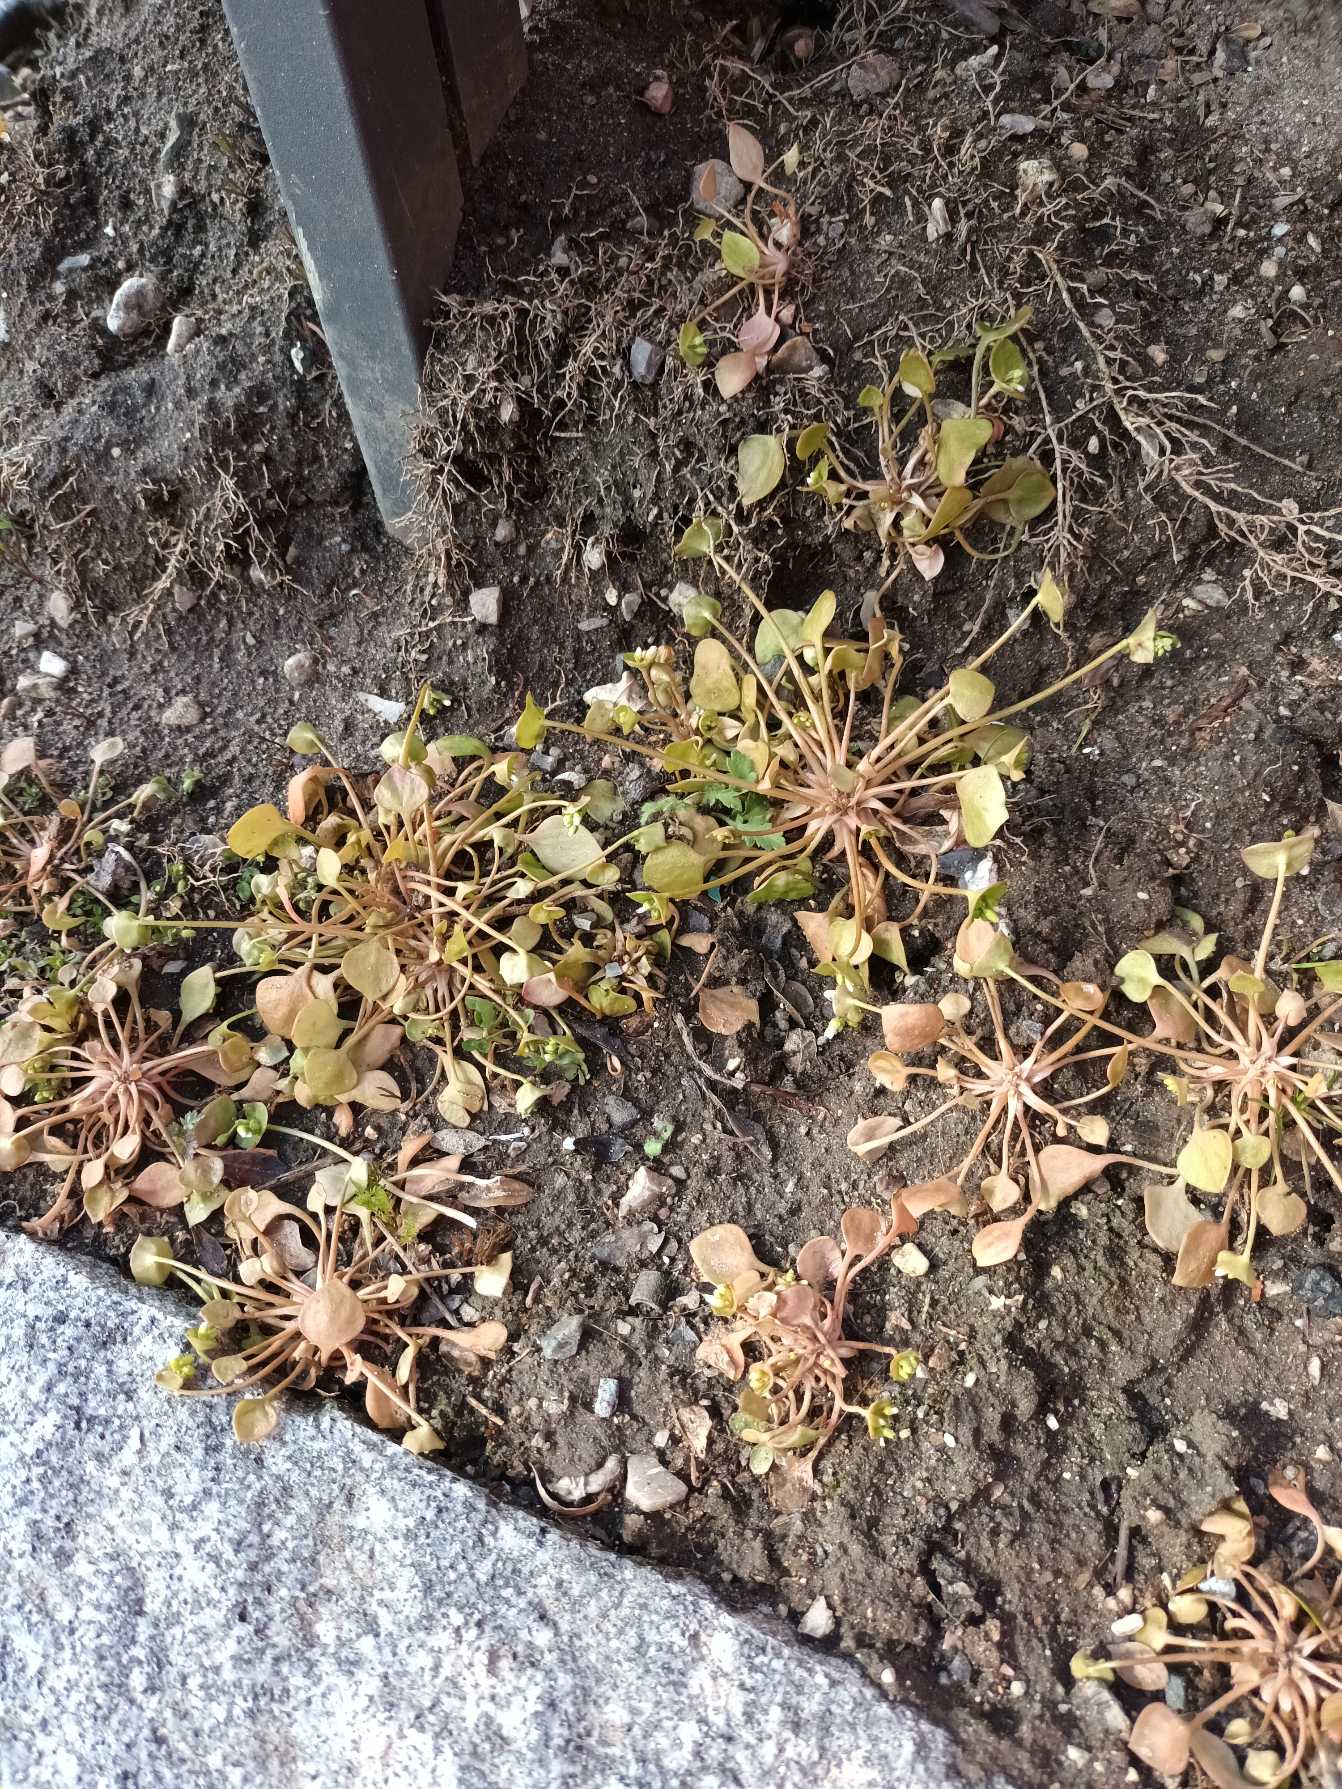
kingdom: Plantae
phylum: Tracheophyta
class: Magnoliopsida
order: Caryophyllales
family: Montiaceae
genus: Claytonia
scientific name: Claytonia perfoliata
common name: Spiselig vinterportulak
